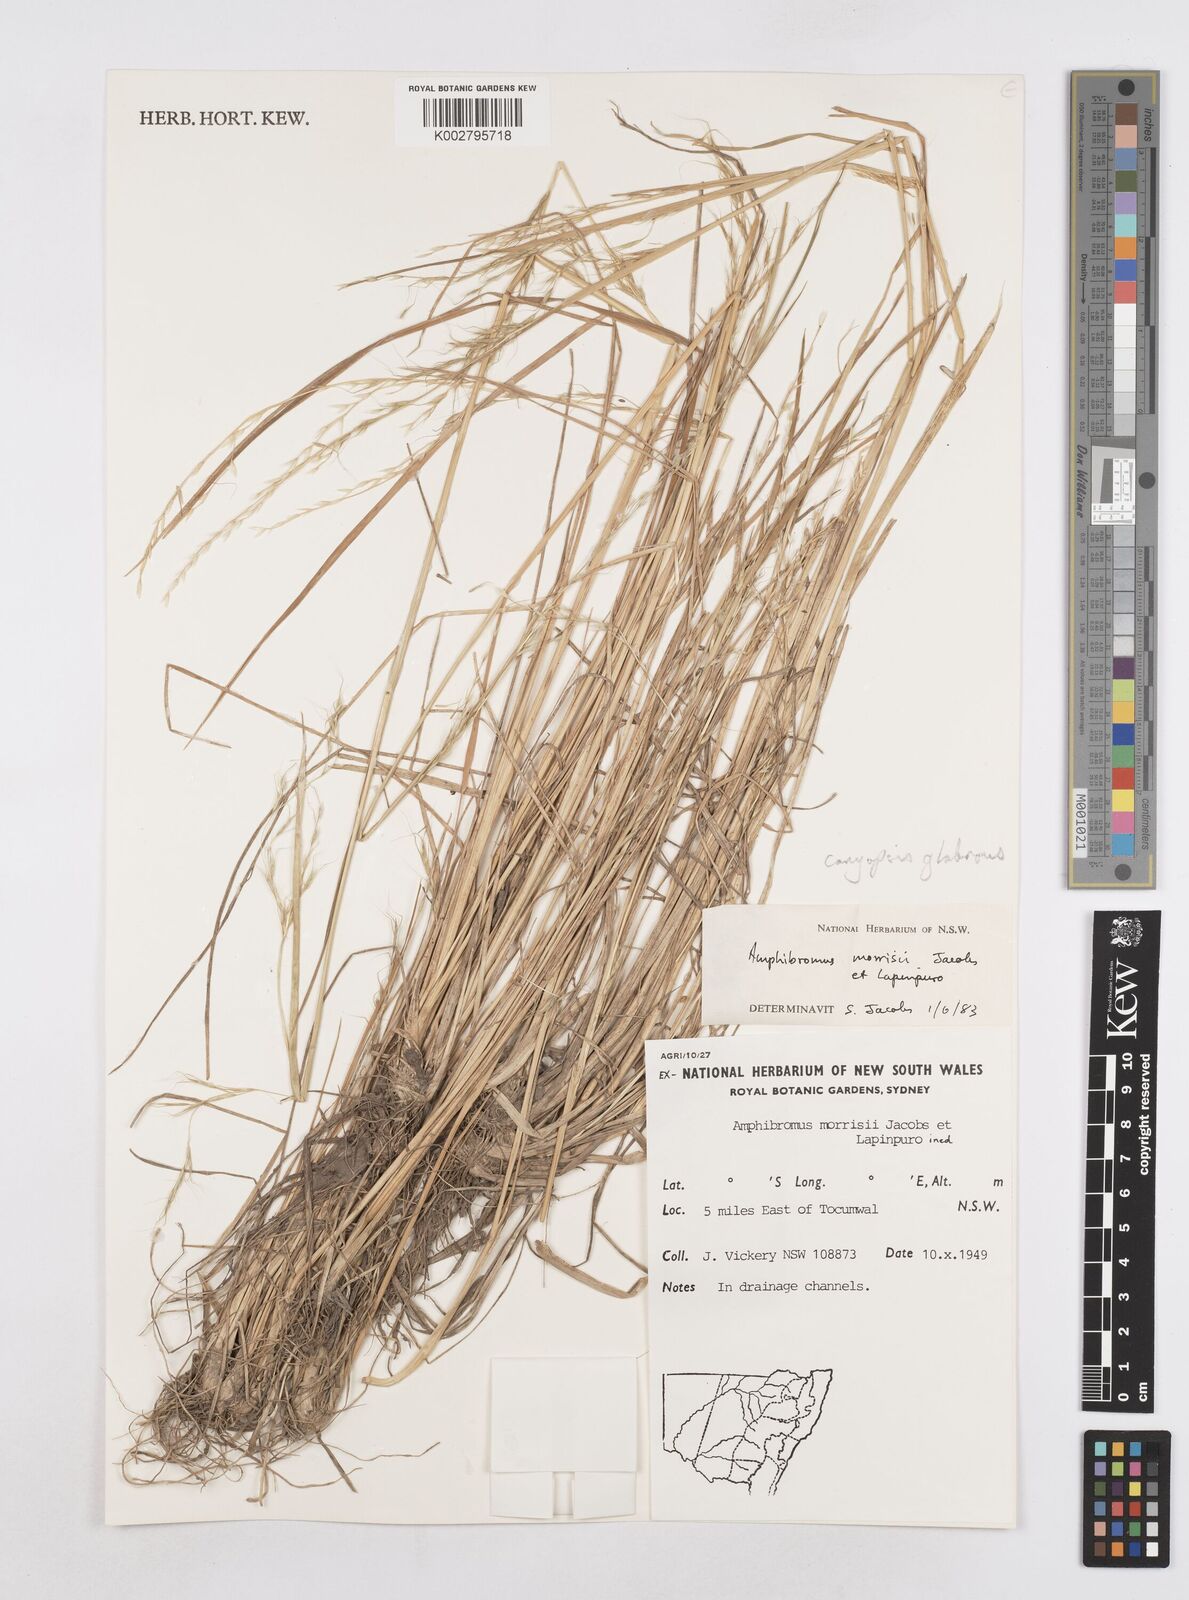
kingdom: Plantae
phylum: Tracheophyta
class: Liliopsida
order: Poales
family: Poaceae
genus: Helictotrichon
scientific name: Helictotrichon
